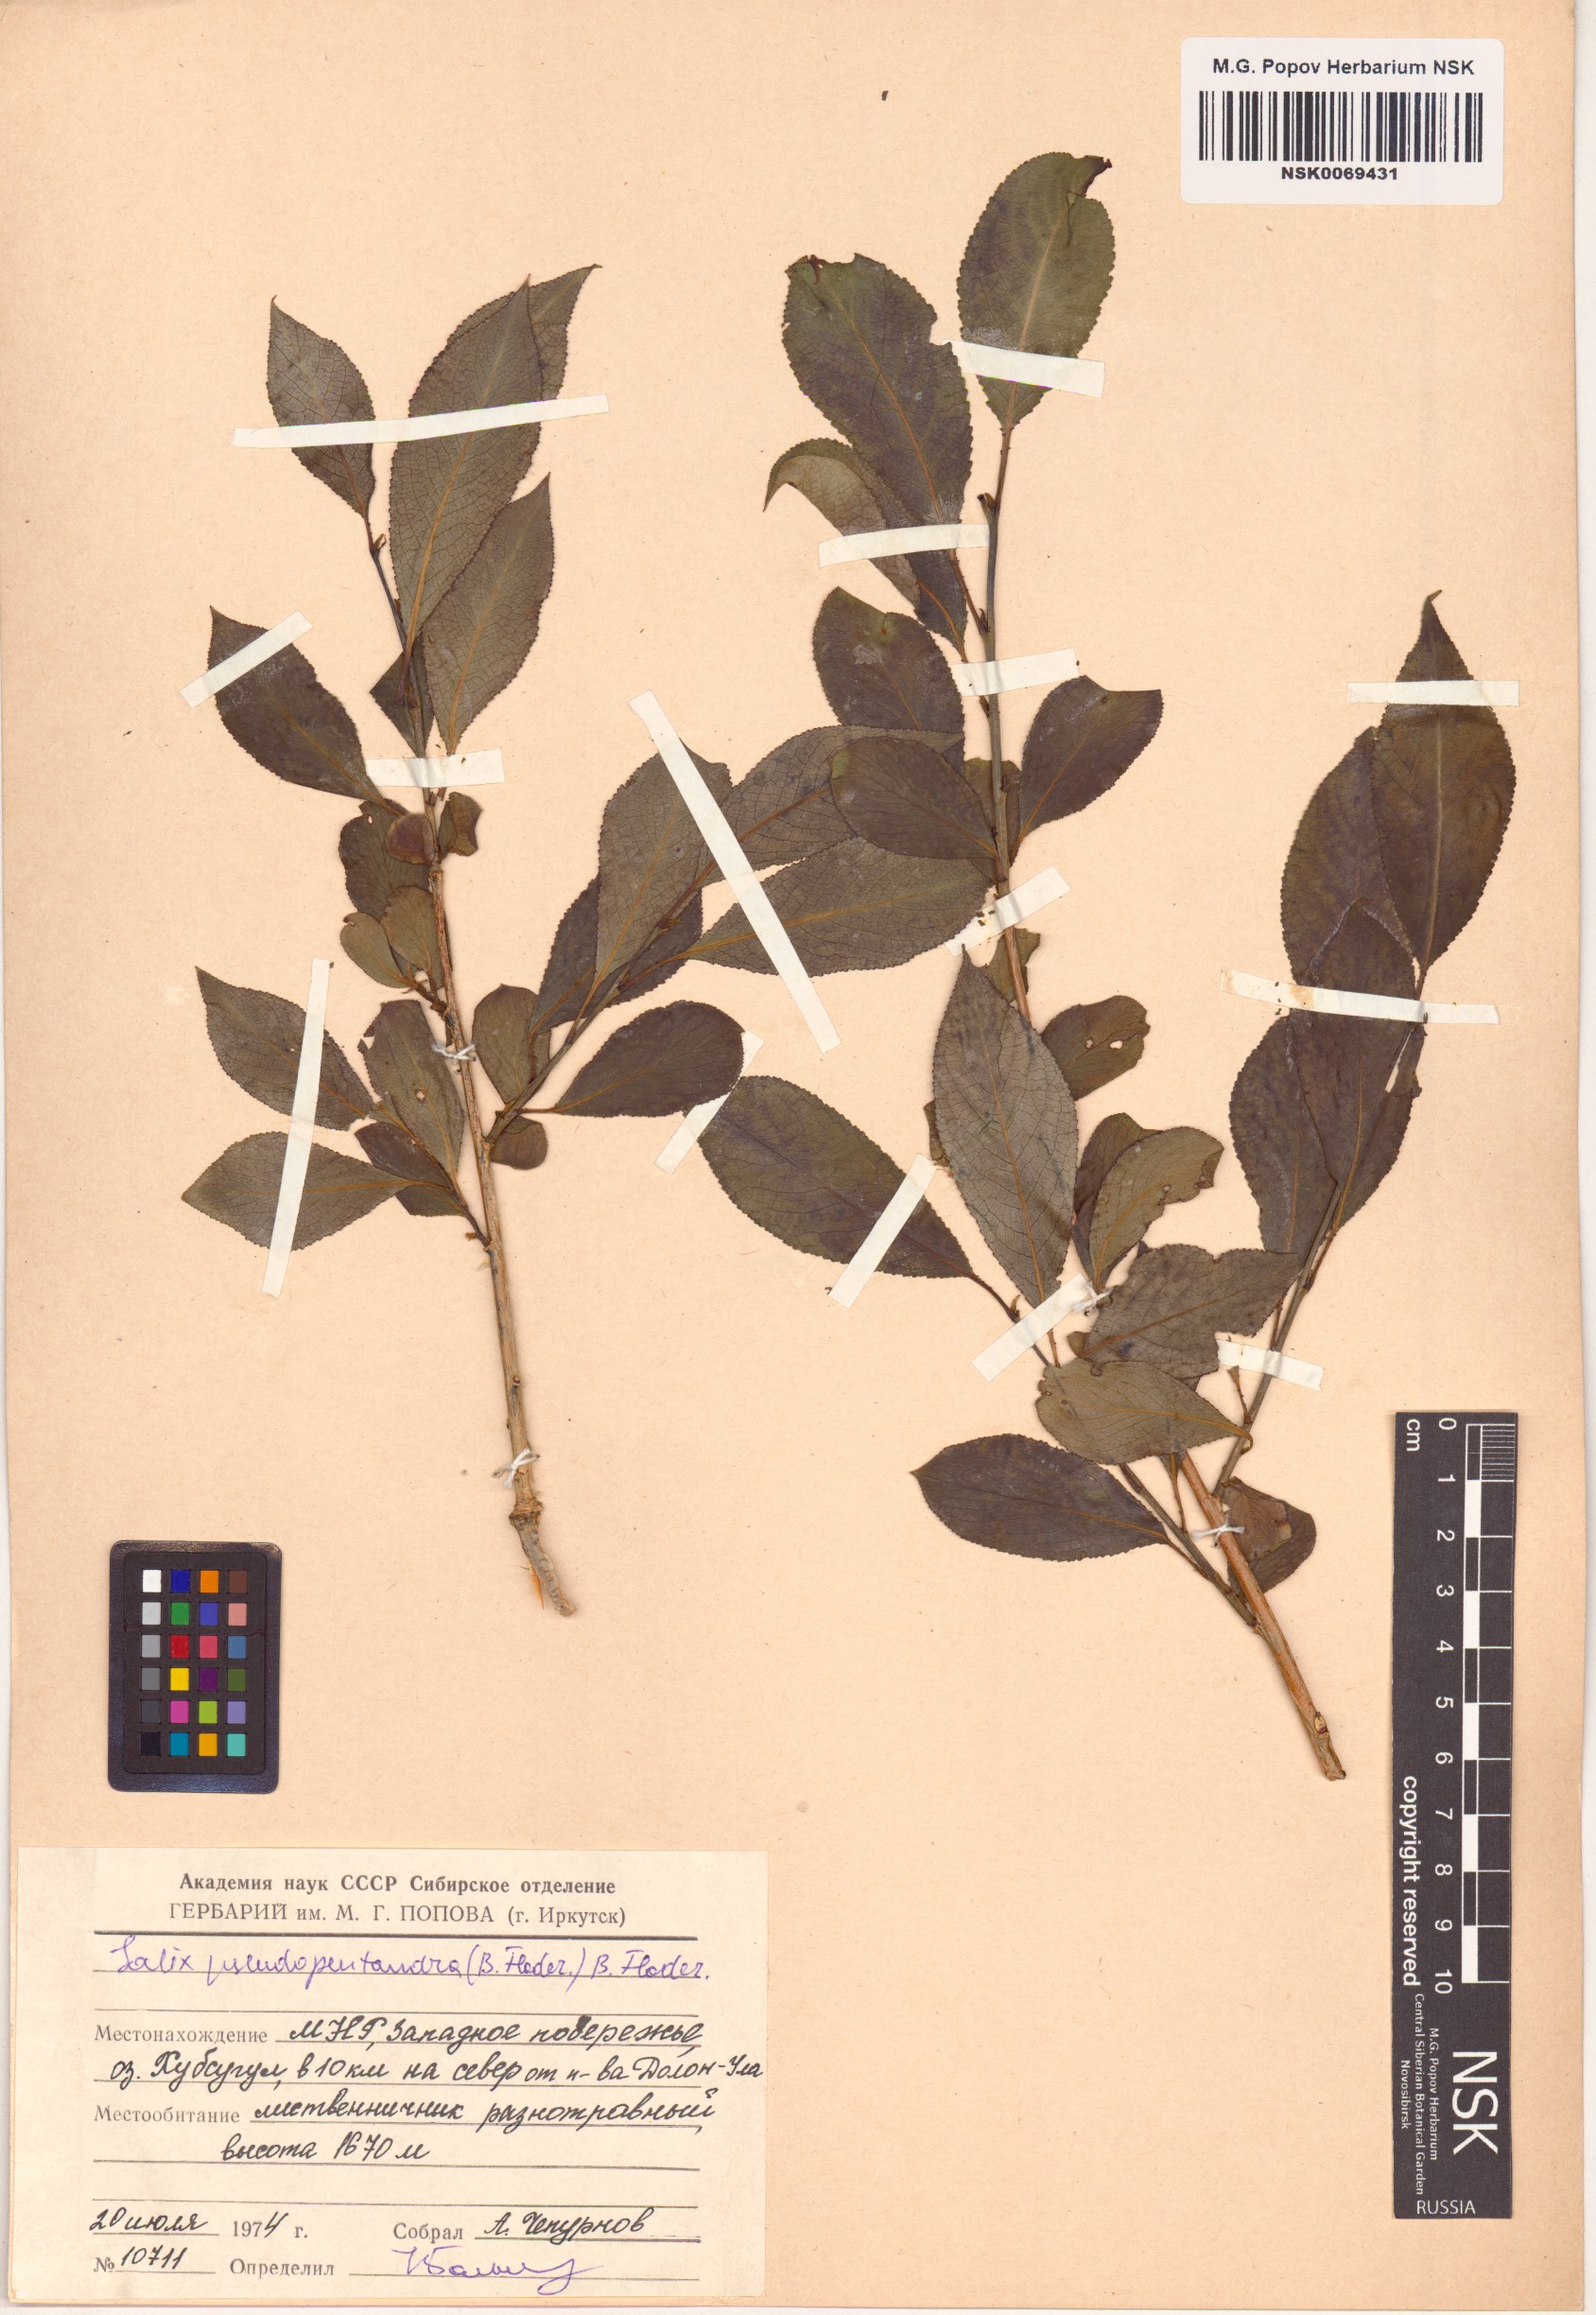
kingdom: Plantae
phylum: Tracheophyta
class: Magnoliopsida
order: Malpighiales
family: Salicaceae
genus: Salix
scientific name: Salix pseudopentandra
